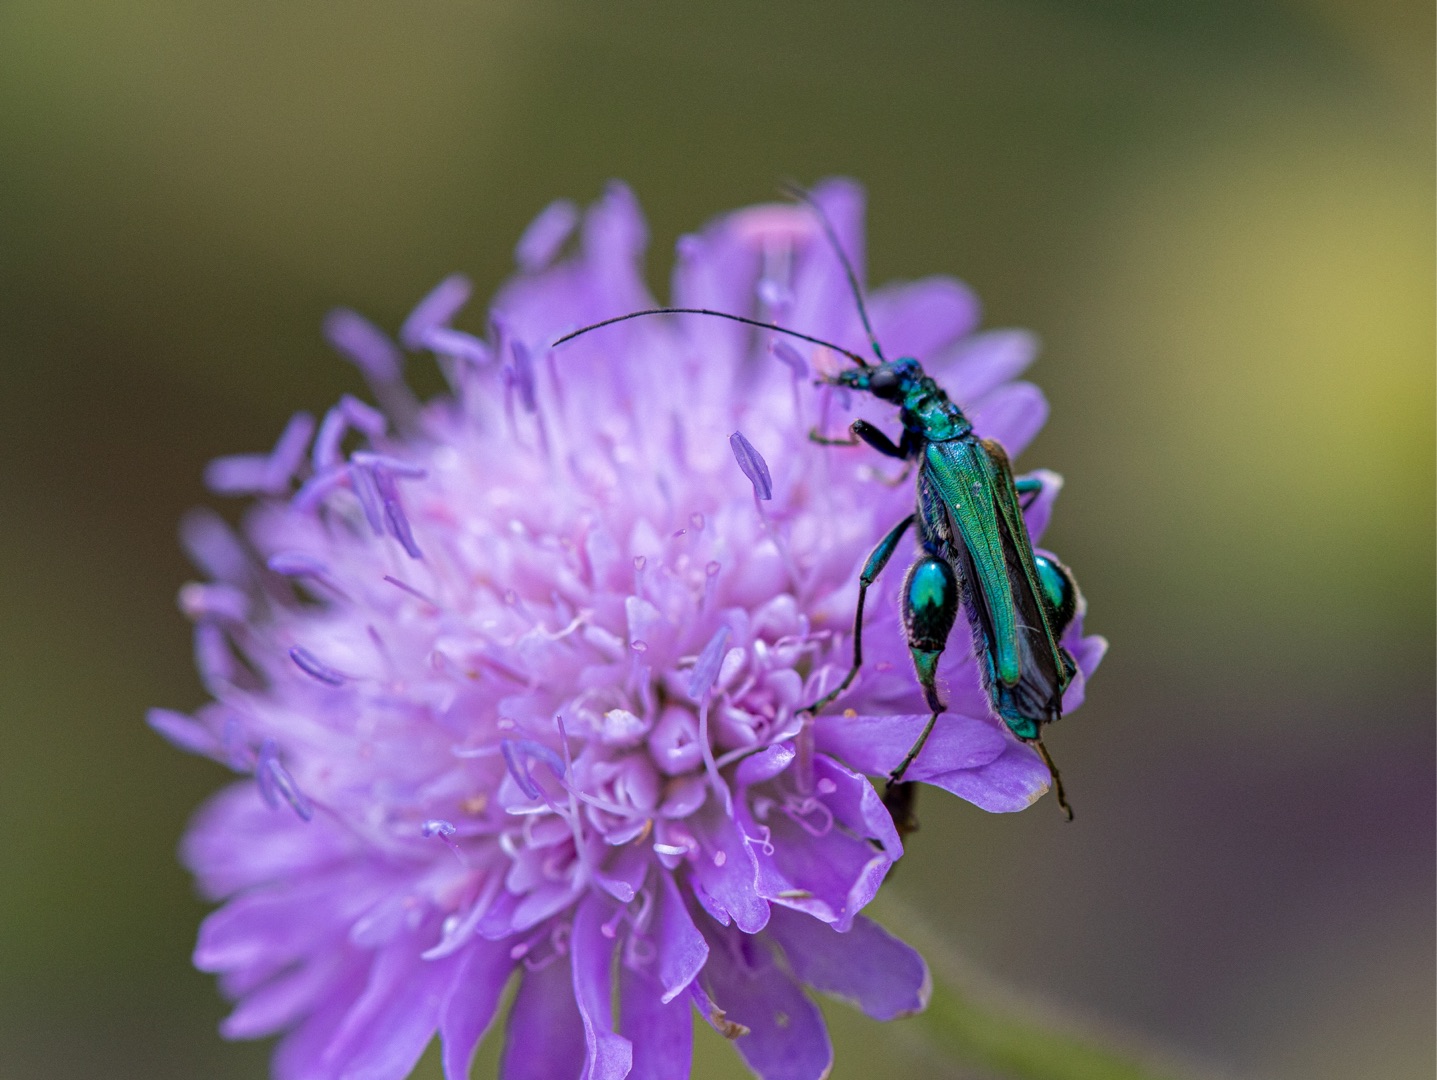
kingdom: Animalia
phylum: Arthropoda
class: Insecta
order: Coleoptera
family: Oedemeridae
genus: Oedemera
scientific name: Oedemera nobilis
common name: Tyklårssolbille
